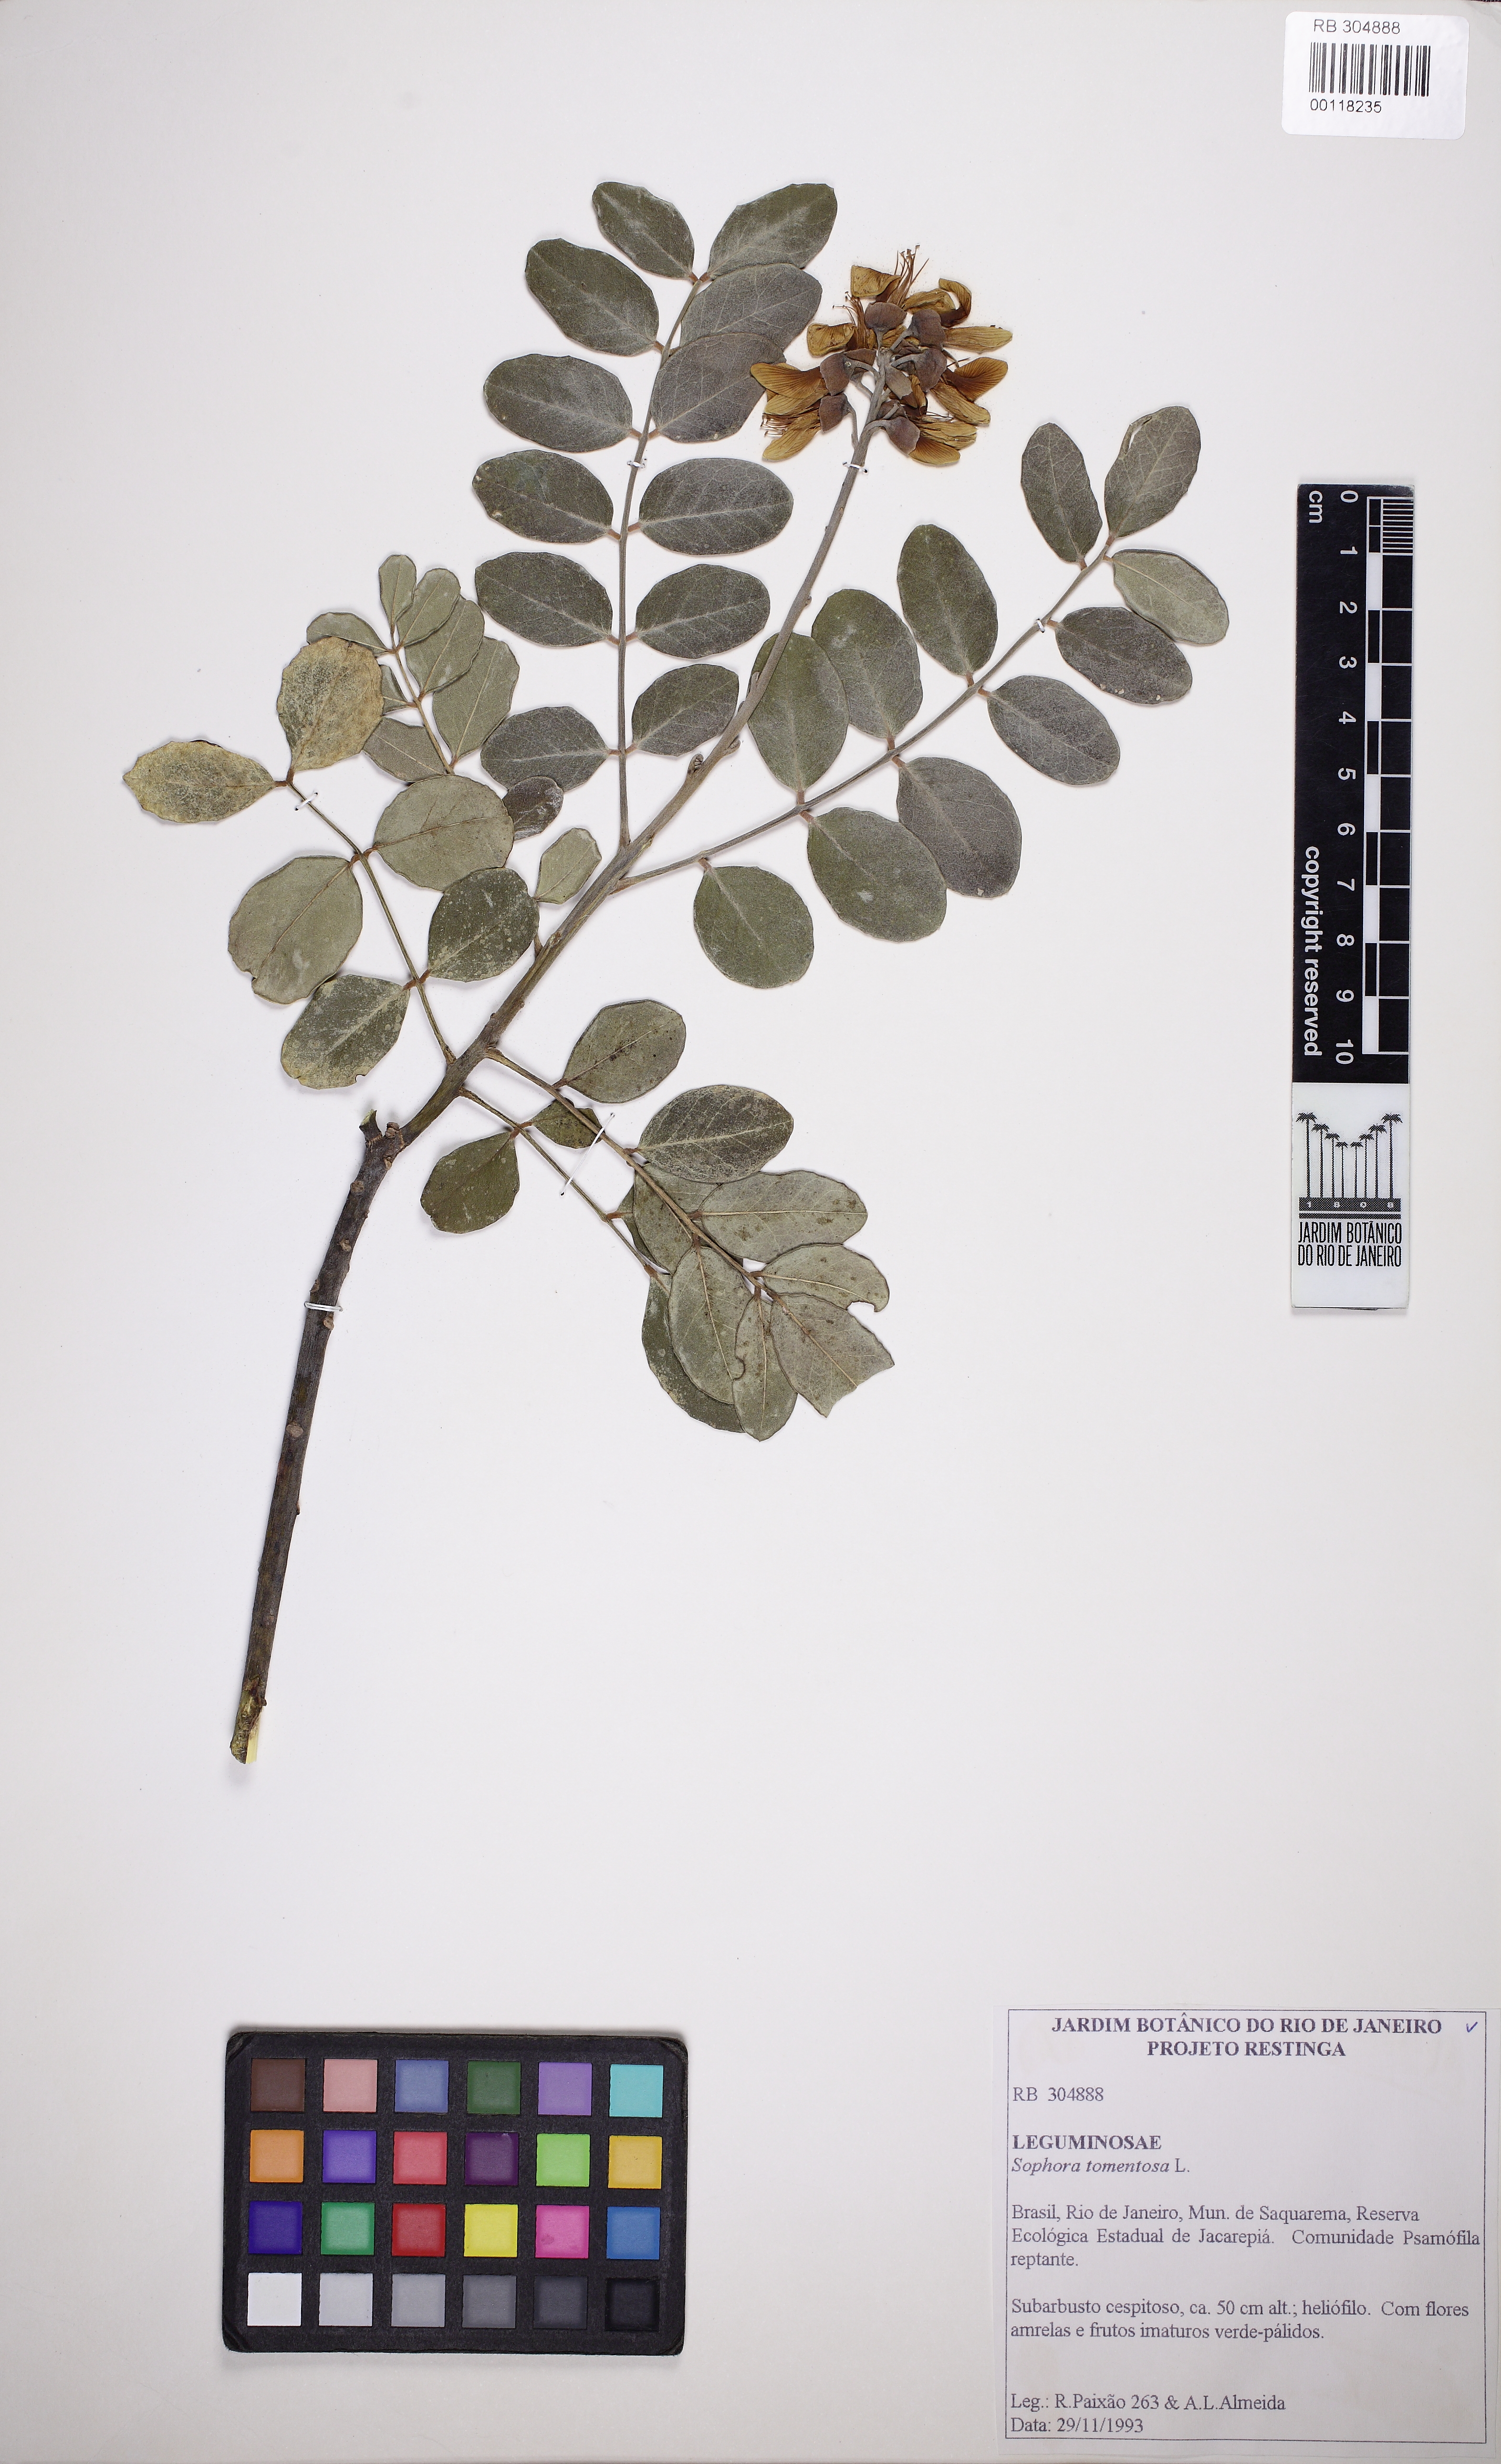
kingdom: Plantae
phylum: Tracheophyta
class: Magnoliopsida
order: Fabales
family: Fabaceae
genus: Sophora
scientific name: Sophora tomentosa
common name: Yellow necklacepod
